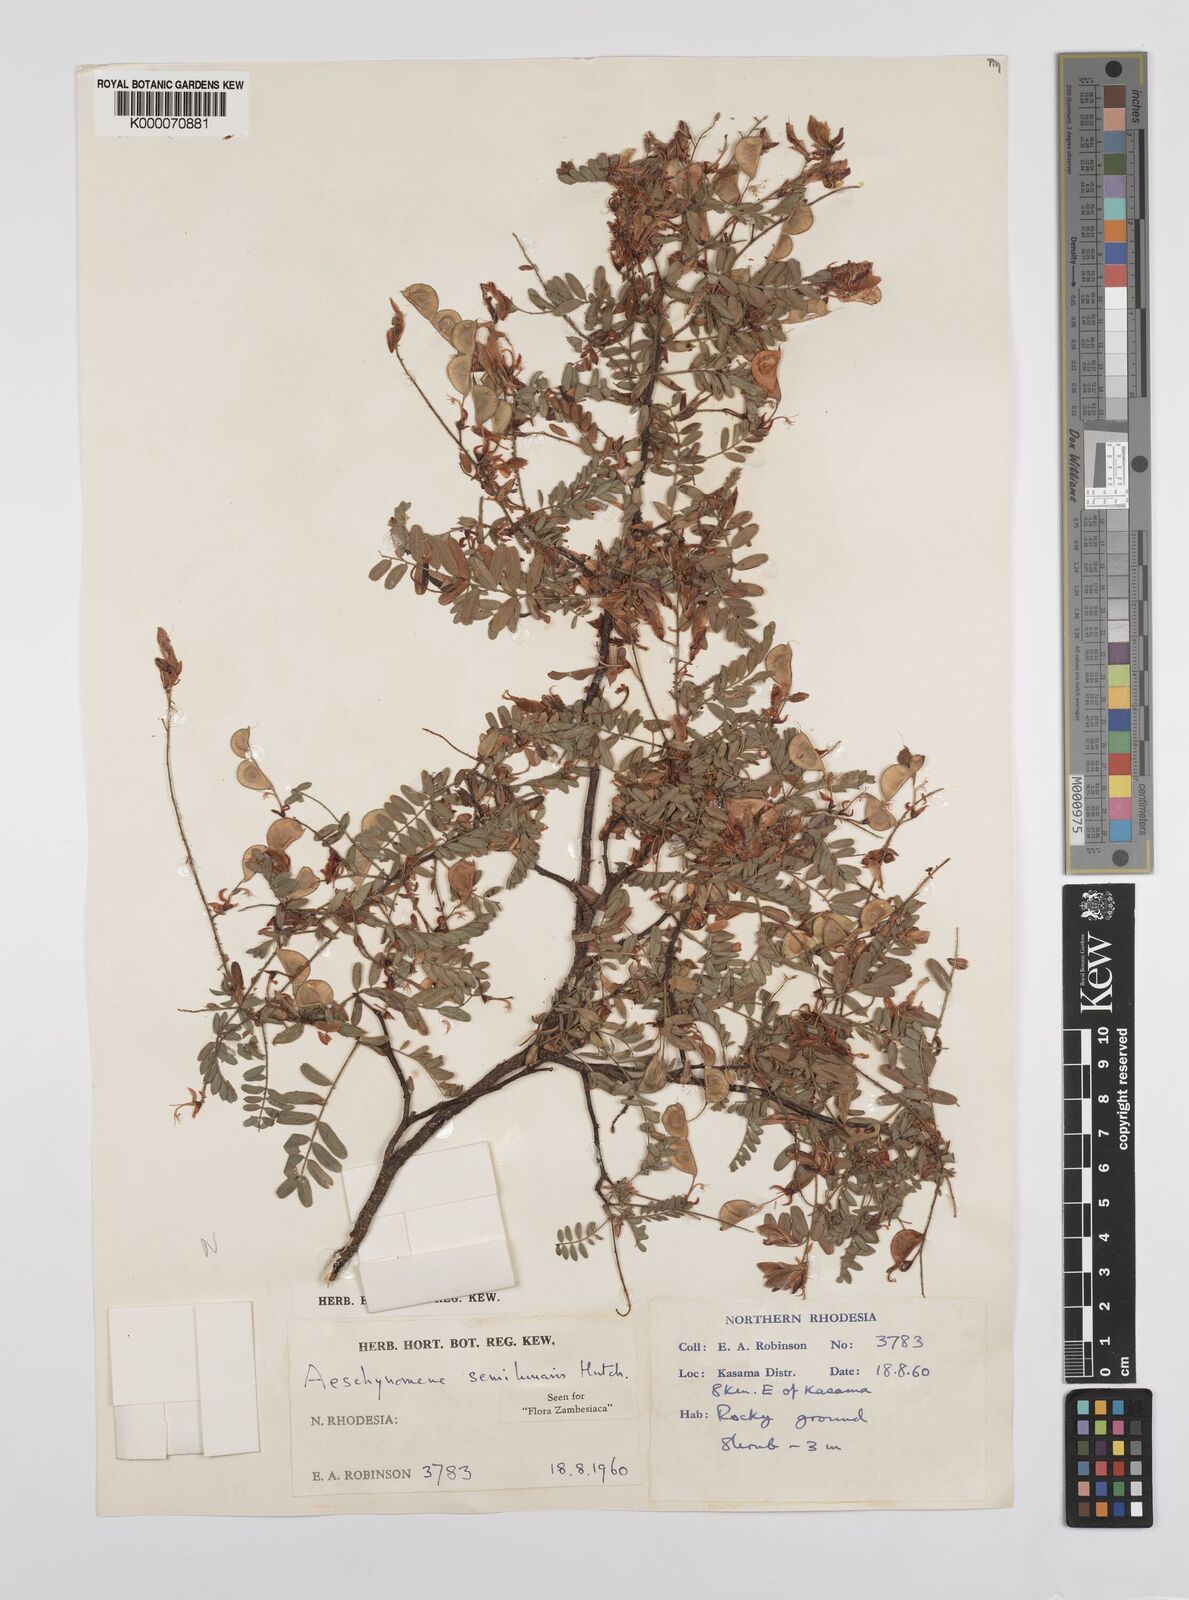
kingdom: Plantae
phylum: Tracheophyta
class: Magnoliopsida
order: Fabales
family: Fabaceae
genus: Aeschynomene
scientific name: Aeschynomene semilunaris
